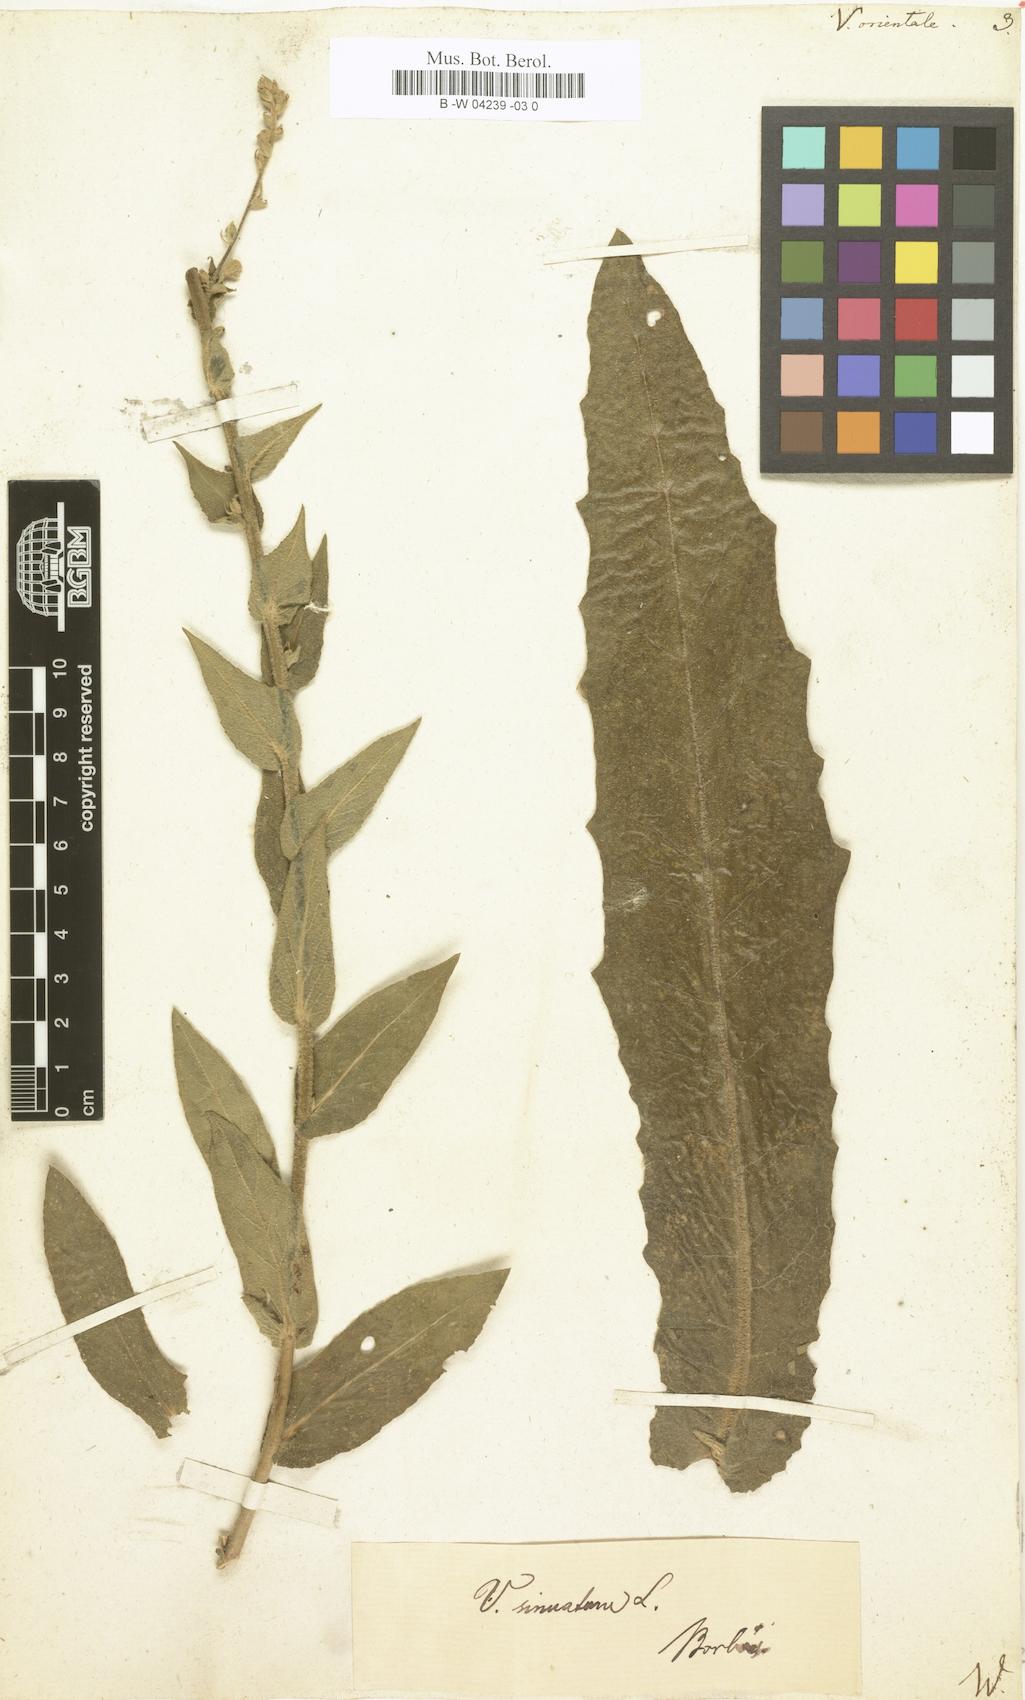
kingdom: Plantae
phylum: Tracheophyta
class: Magnoliopsida
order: Lamiales
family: Scrophulariaceae
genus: Verbascum
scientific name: Verbascum orientale
